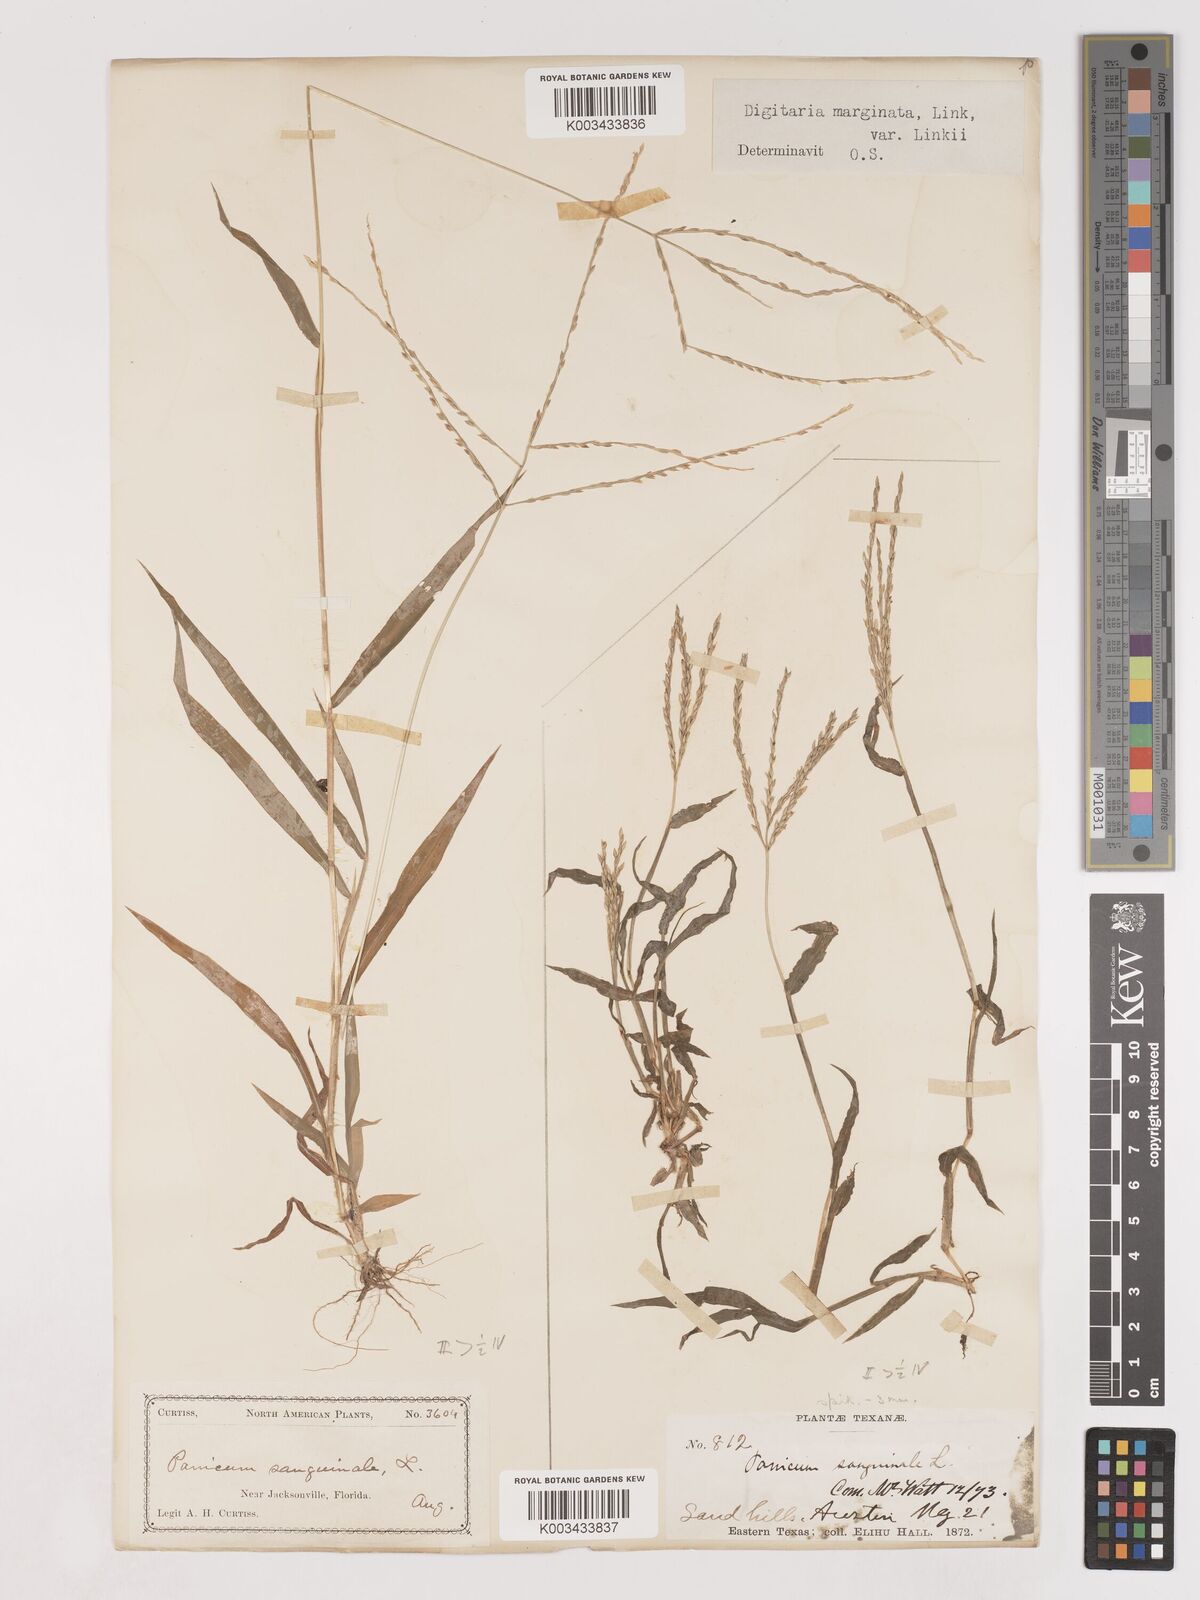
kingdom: Plantae
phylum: Tracheophyta
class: Liliopsida
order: Poales
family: Poaceae
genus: Digitaria
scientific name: Digitaria ciliaris
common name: Tropical finger-grass
